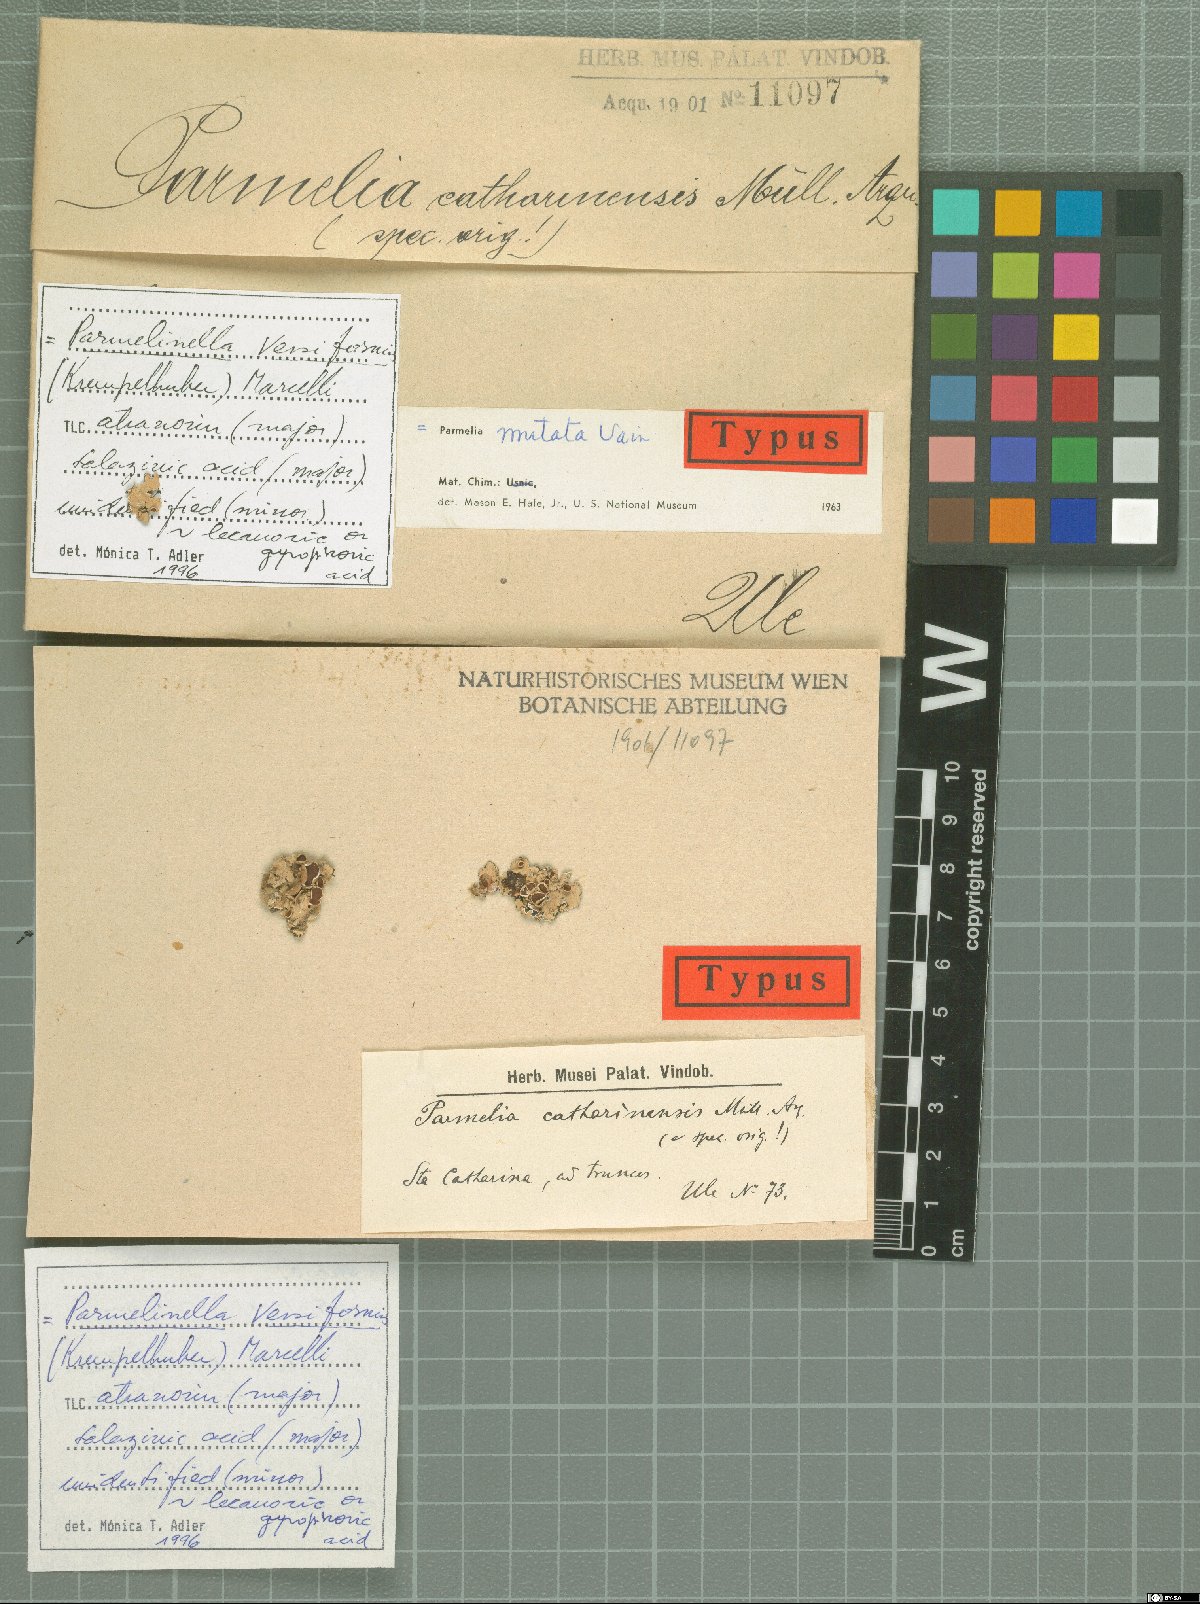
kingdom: Fungi
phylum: Ascomycota
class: Lecanoromycetes
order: Lecanorales
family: Parmeliaceae
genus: Lethariella
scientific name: Lethariella canariensis
